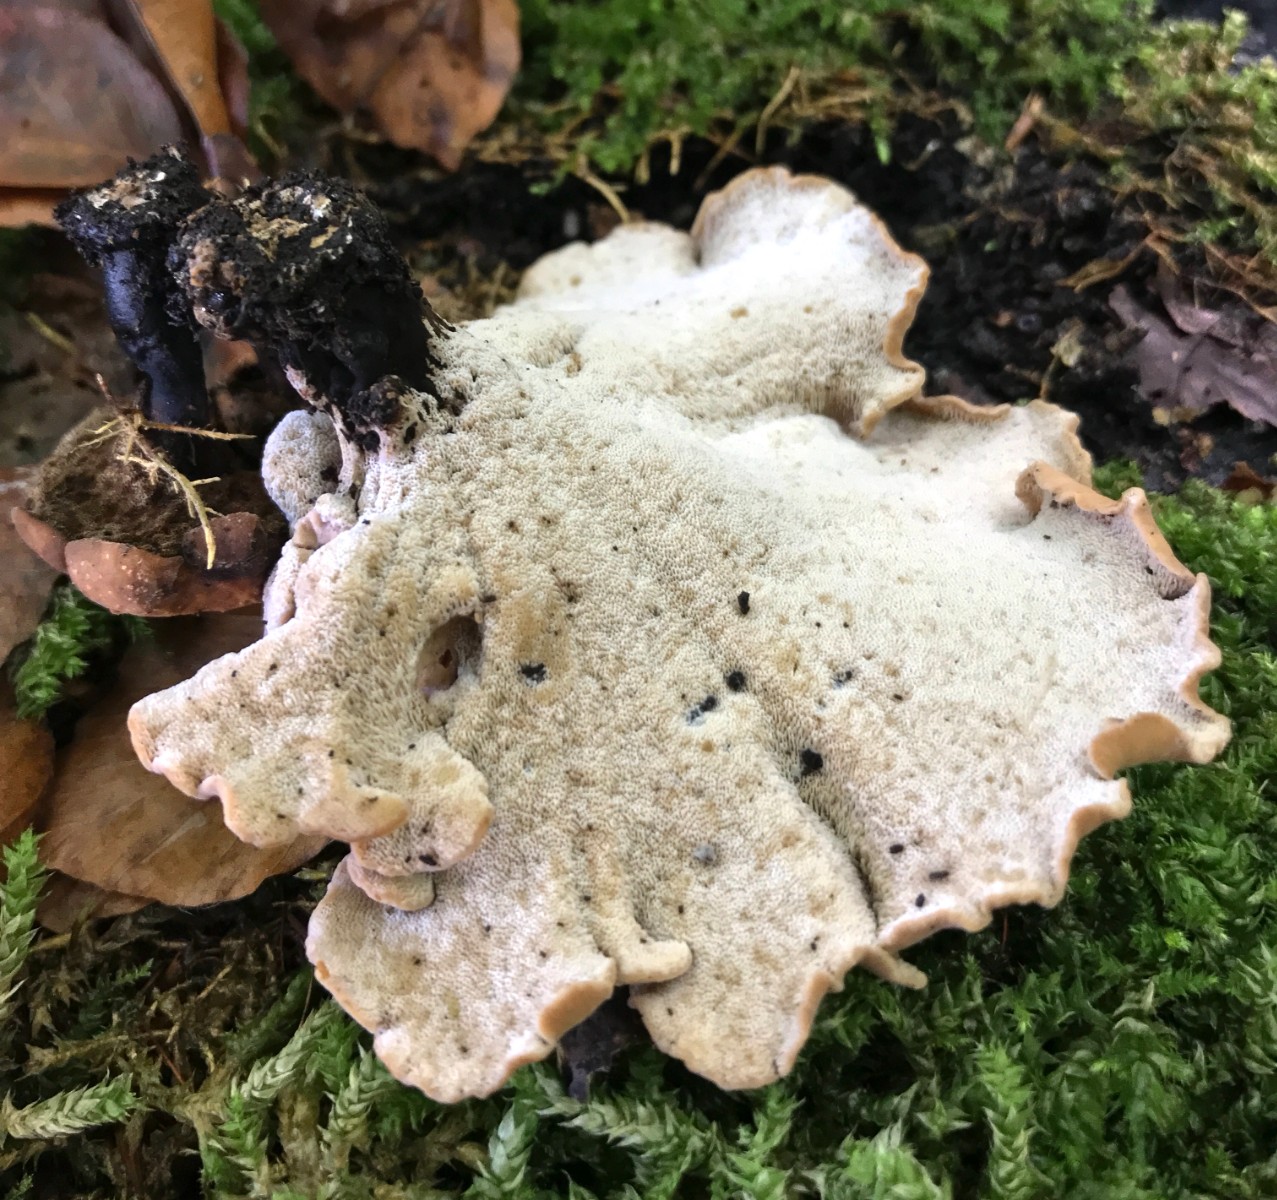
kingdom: Fungi
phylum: Basidiomycota
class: Agaricomycetes
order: Polyporales
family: Polyporaceae
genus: Cerioporus
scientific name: Cerioporus varius
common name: foranderlig stilkporesvamp
